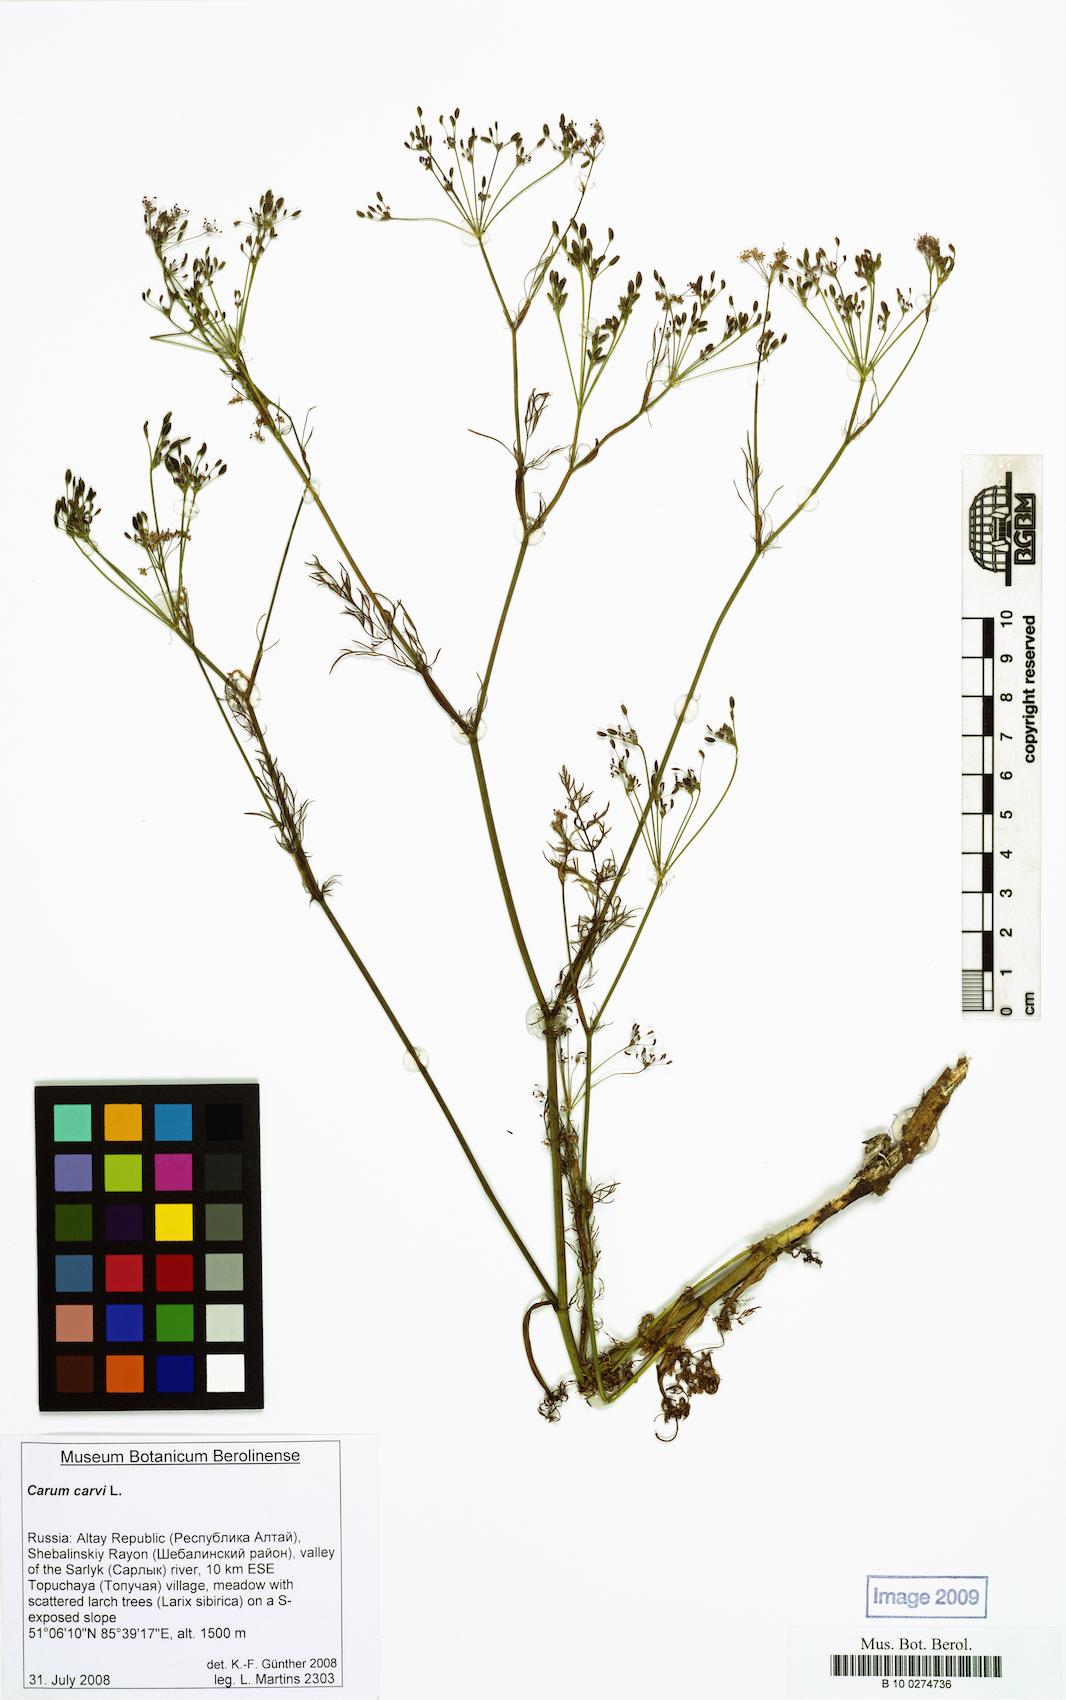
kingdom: Plantae
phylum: Tracheophyta
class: Magnoliopsida
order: Apiales
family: Apiaceae
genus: Carum
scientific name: Carum carvi
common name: Caraway
